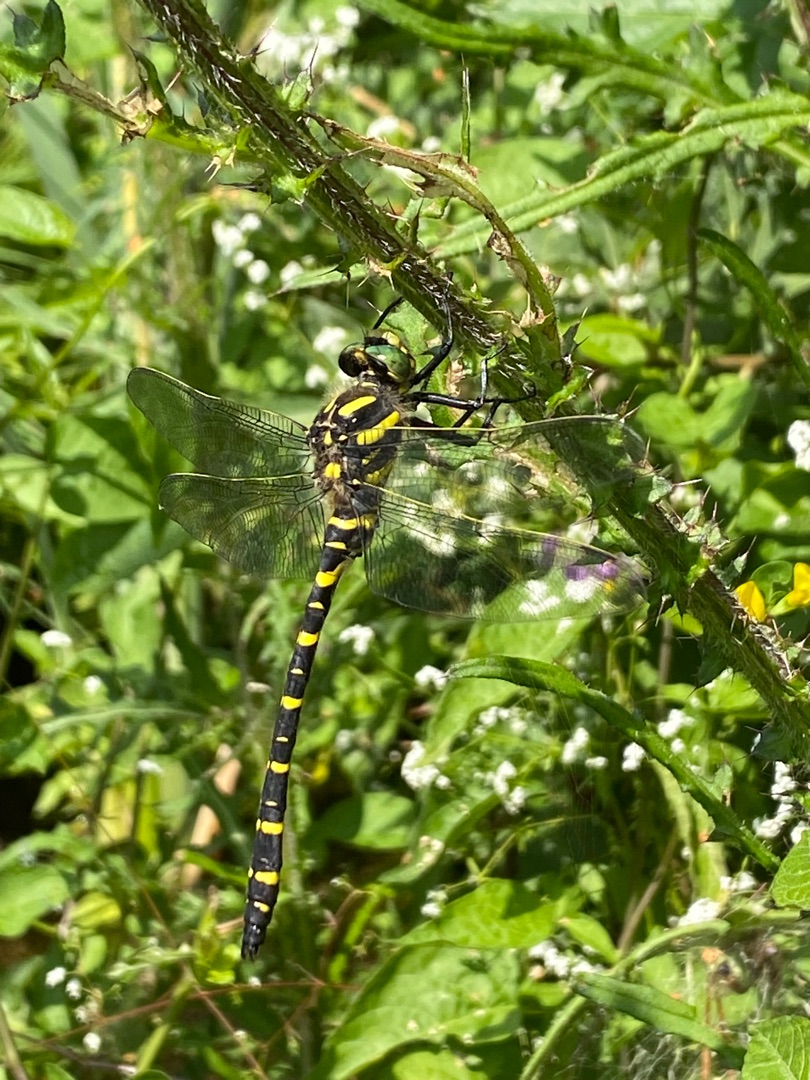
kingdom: Animalia
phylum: Arthropoda
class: Insecta
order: Odonata
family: Cordulegastridae
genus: Cordulegaster
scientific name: Cordulegaster boltonii
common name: Kongeguldsmed
